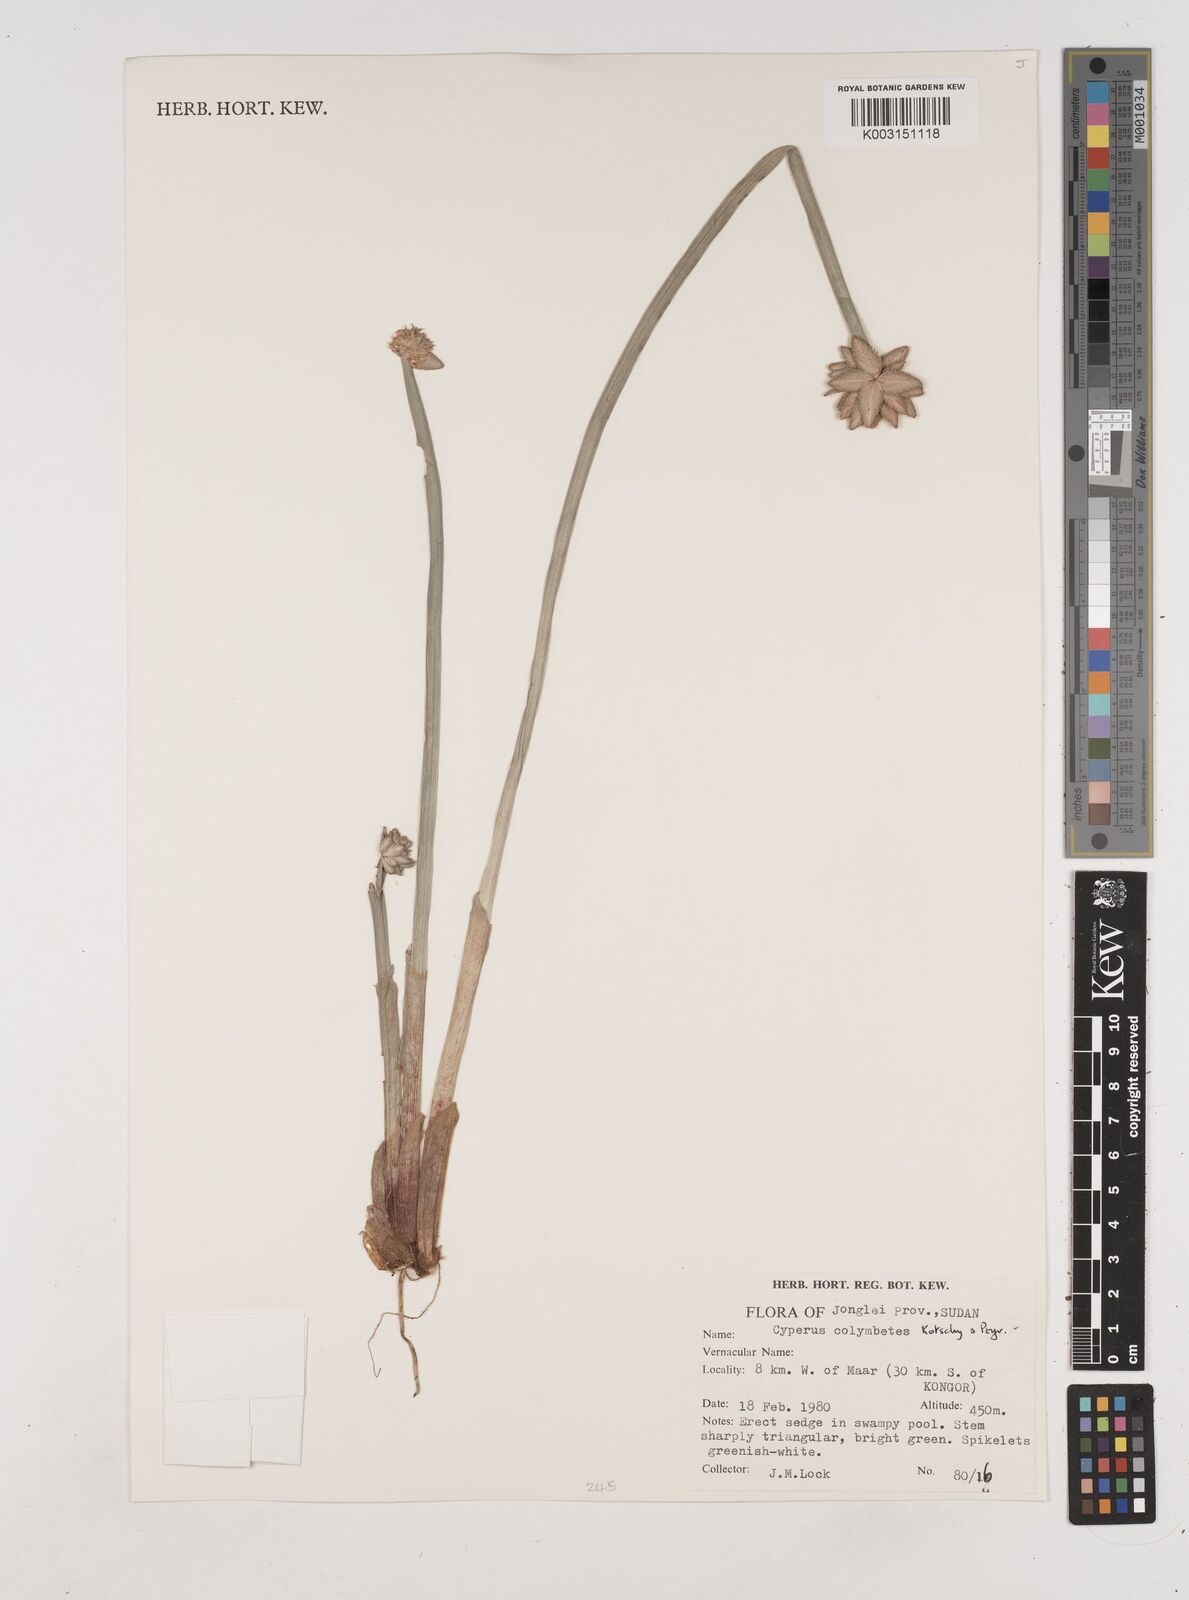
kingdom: Plantae
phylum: Tracheophyta
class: Liliopsida
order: Poales
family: Cyperaceae
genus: Cyperus
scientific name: Cyperus colymbetes
